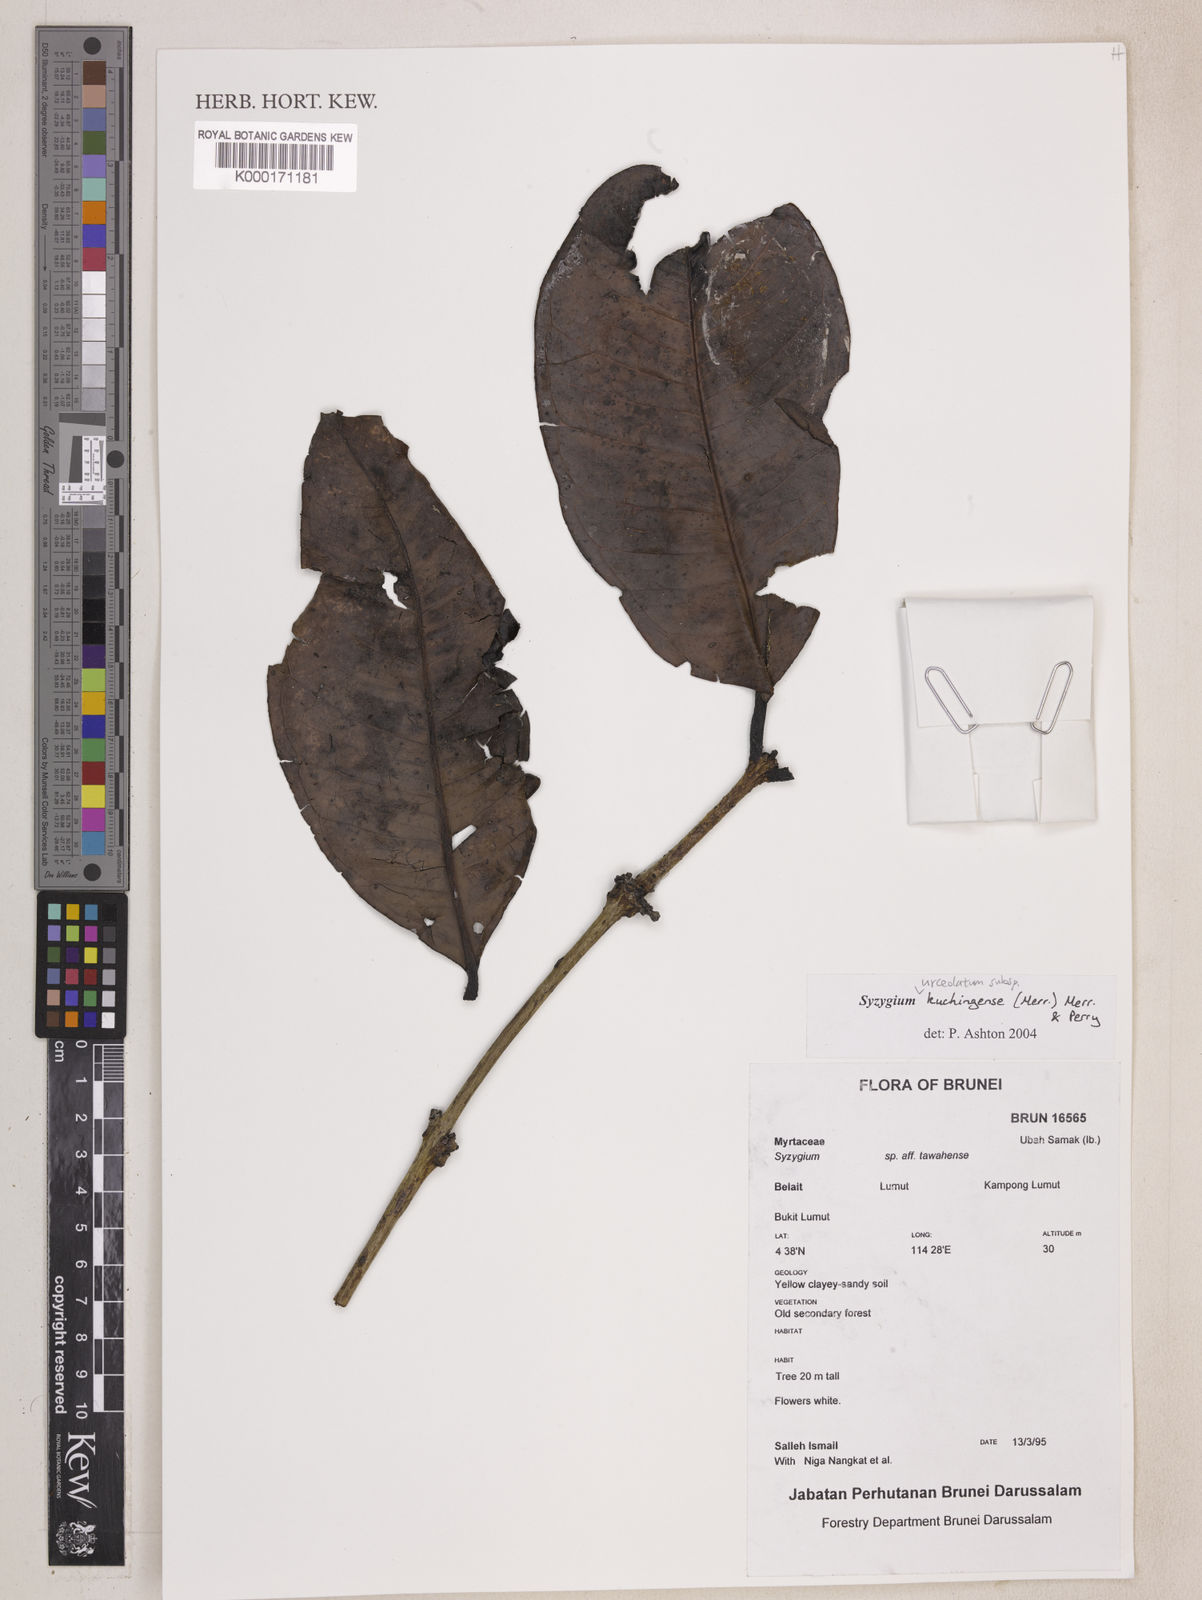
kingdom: Plantae
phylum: Tracheophyta
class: Magnoliopsida
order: Myrtales
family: Myrtaceae
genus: Syzygium
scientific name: Syzygium urceolatum
